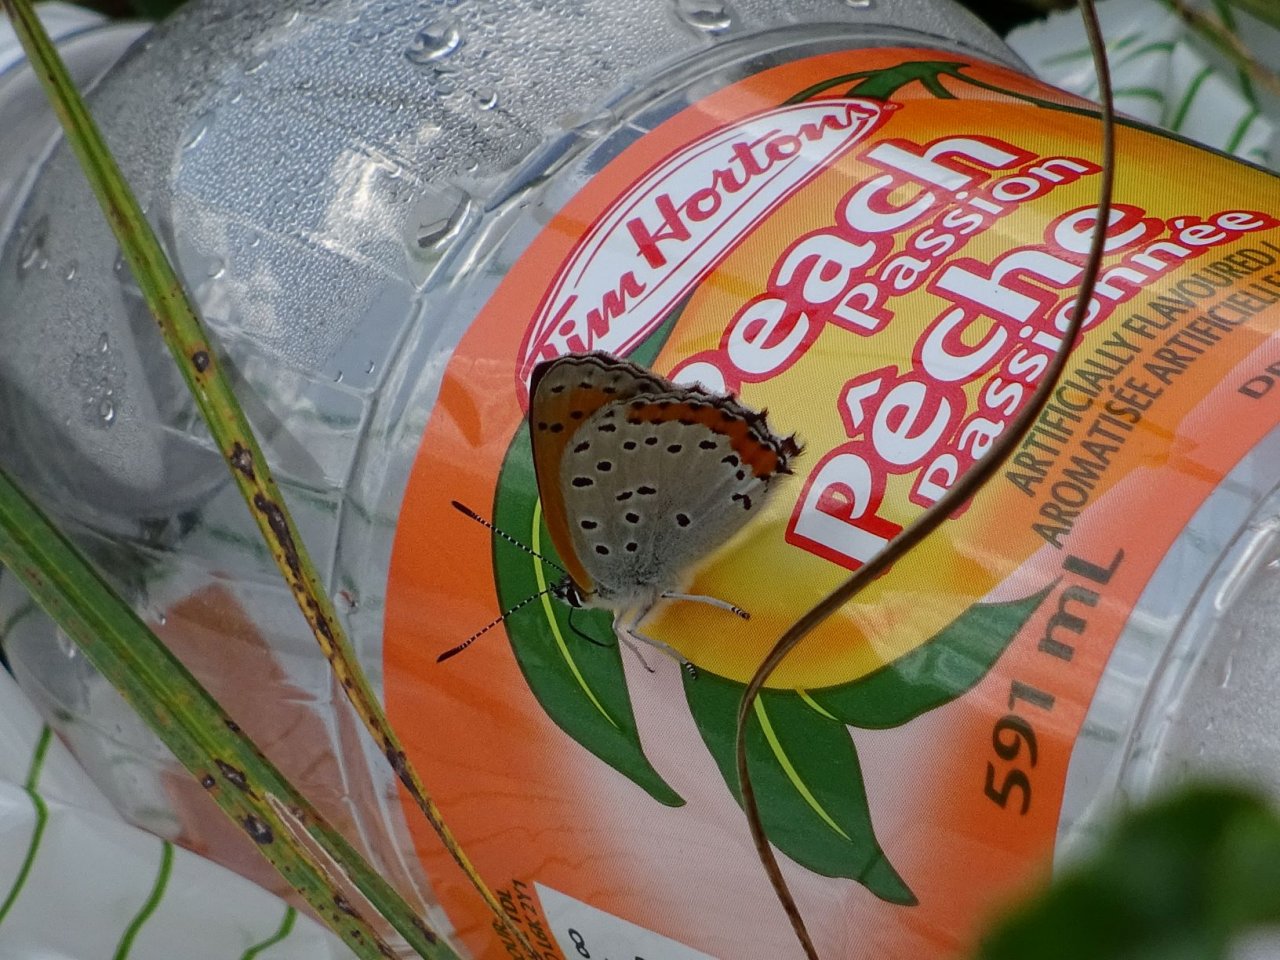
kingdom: Animalia
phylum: Arthropoda
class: Insecta
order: Lepidoptera
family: Sesiidae
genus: Sesia
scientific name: Sesia Lycaena hyllus
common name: Bronze Copper
